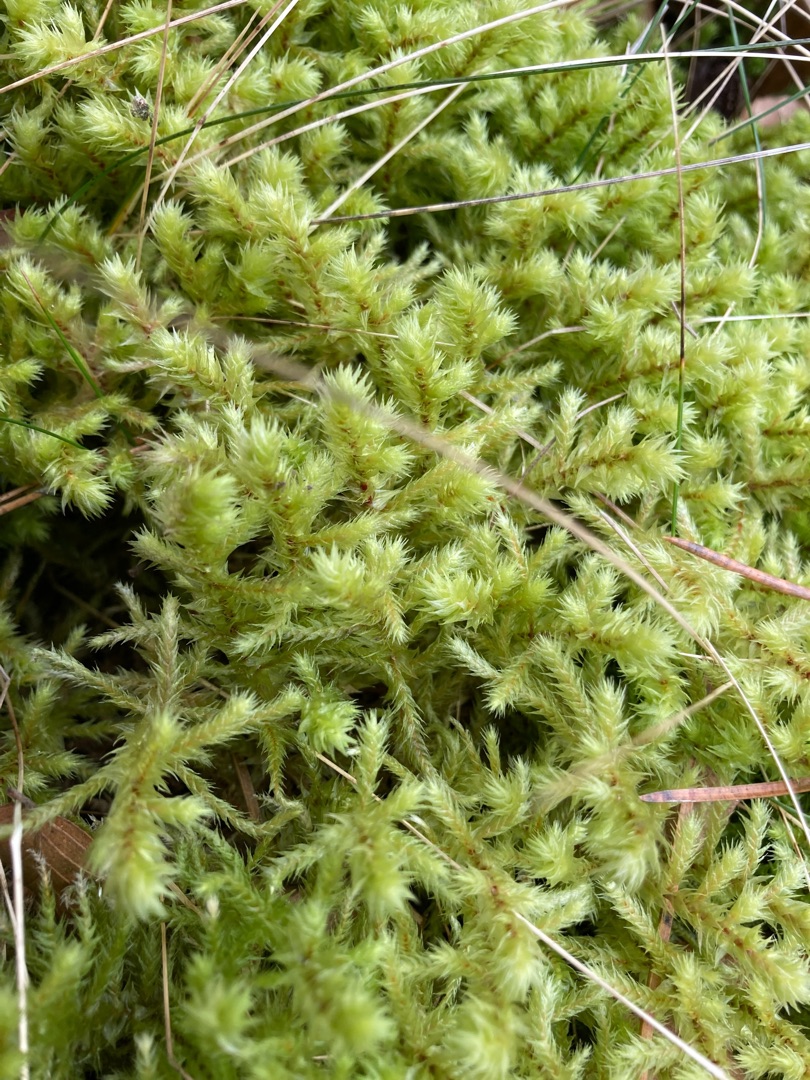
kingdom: Plantae
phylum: Bryophyta
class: Bryopsida
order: Hypnales
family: Hylocomiaceae
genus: Hylocomiadelphus
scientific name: Hylocomiadelphus triquetrus
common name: Stor kransemos
